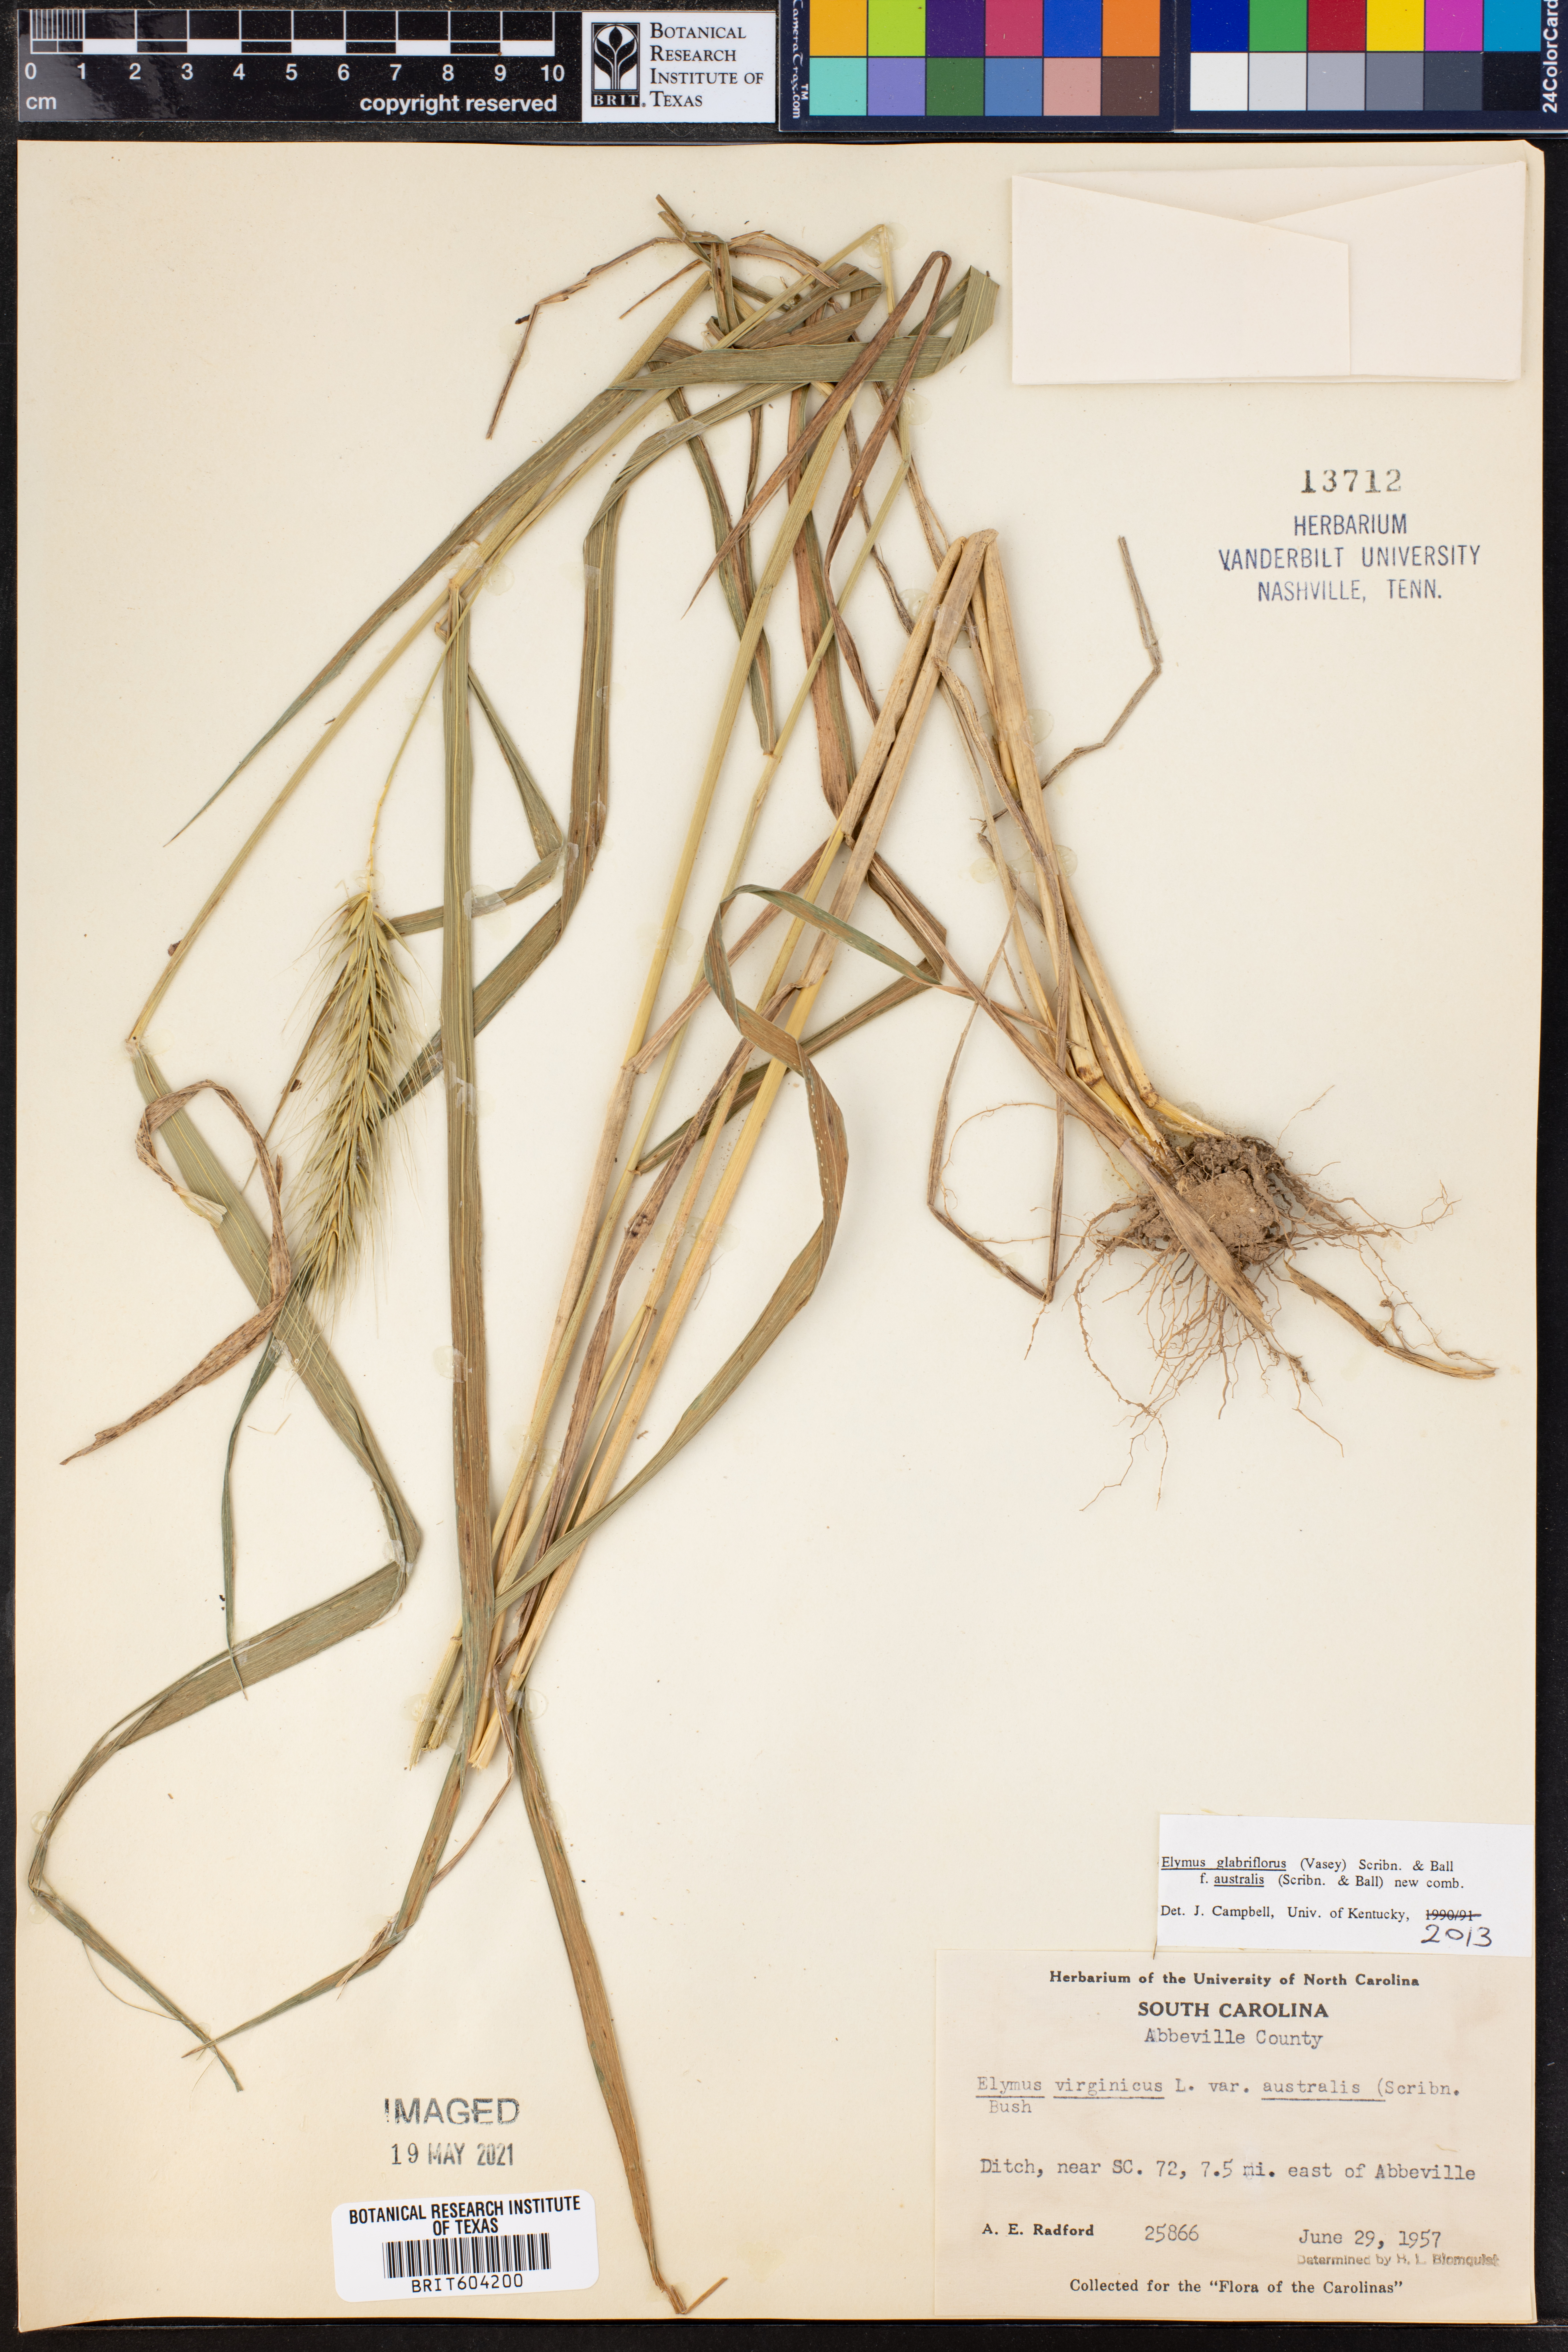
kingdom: Plantae
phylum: Tracheophyta
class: Liliopsida
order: Poales
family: Poaceae
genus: Elymus
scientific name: Elymus virginicus
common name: Common eastern wildrye
